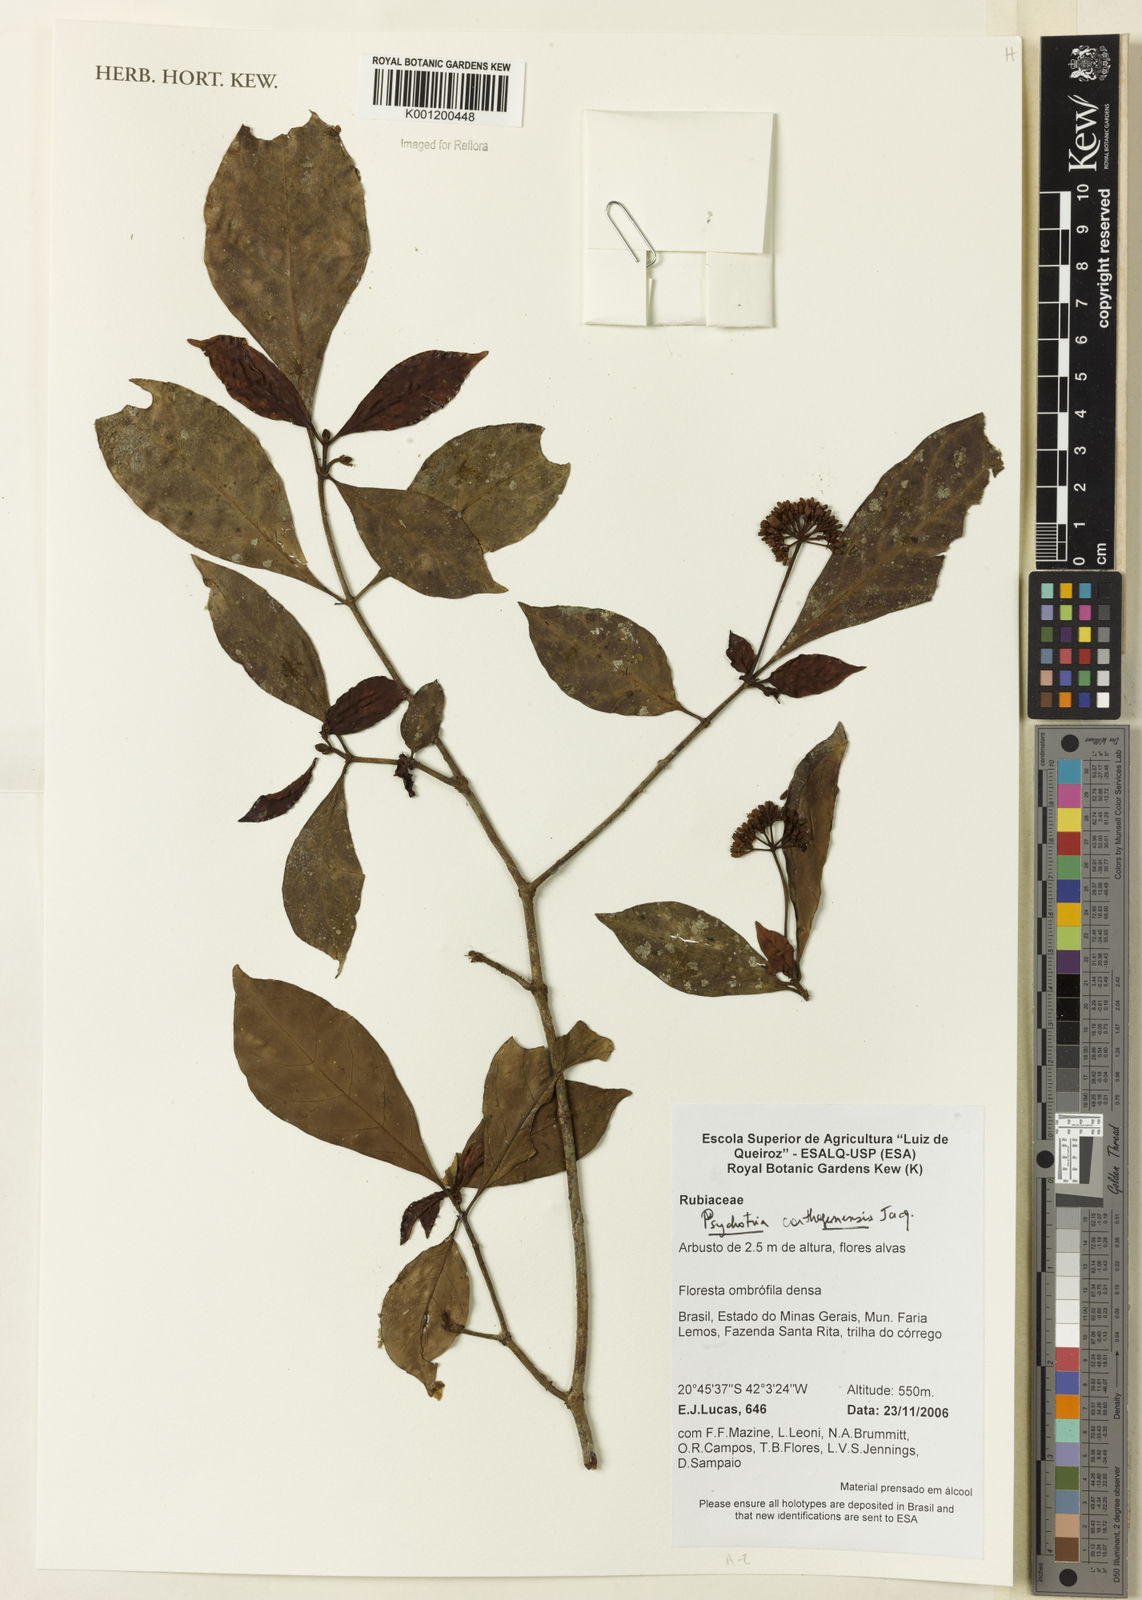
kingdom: Plantae
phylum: Tracheophyta
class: Magnoliopsida
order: Gentianales
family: Rubiaceae
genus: Psychotria
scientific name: Psychotria carthagenensis
